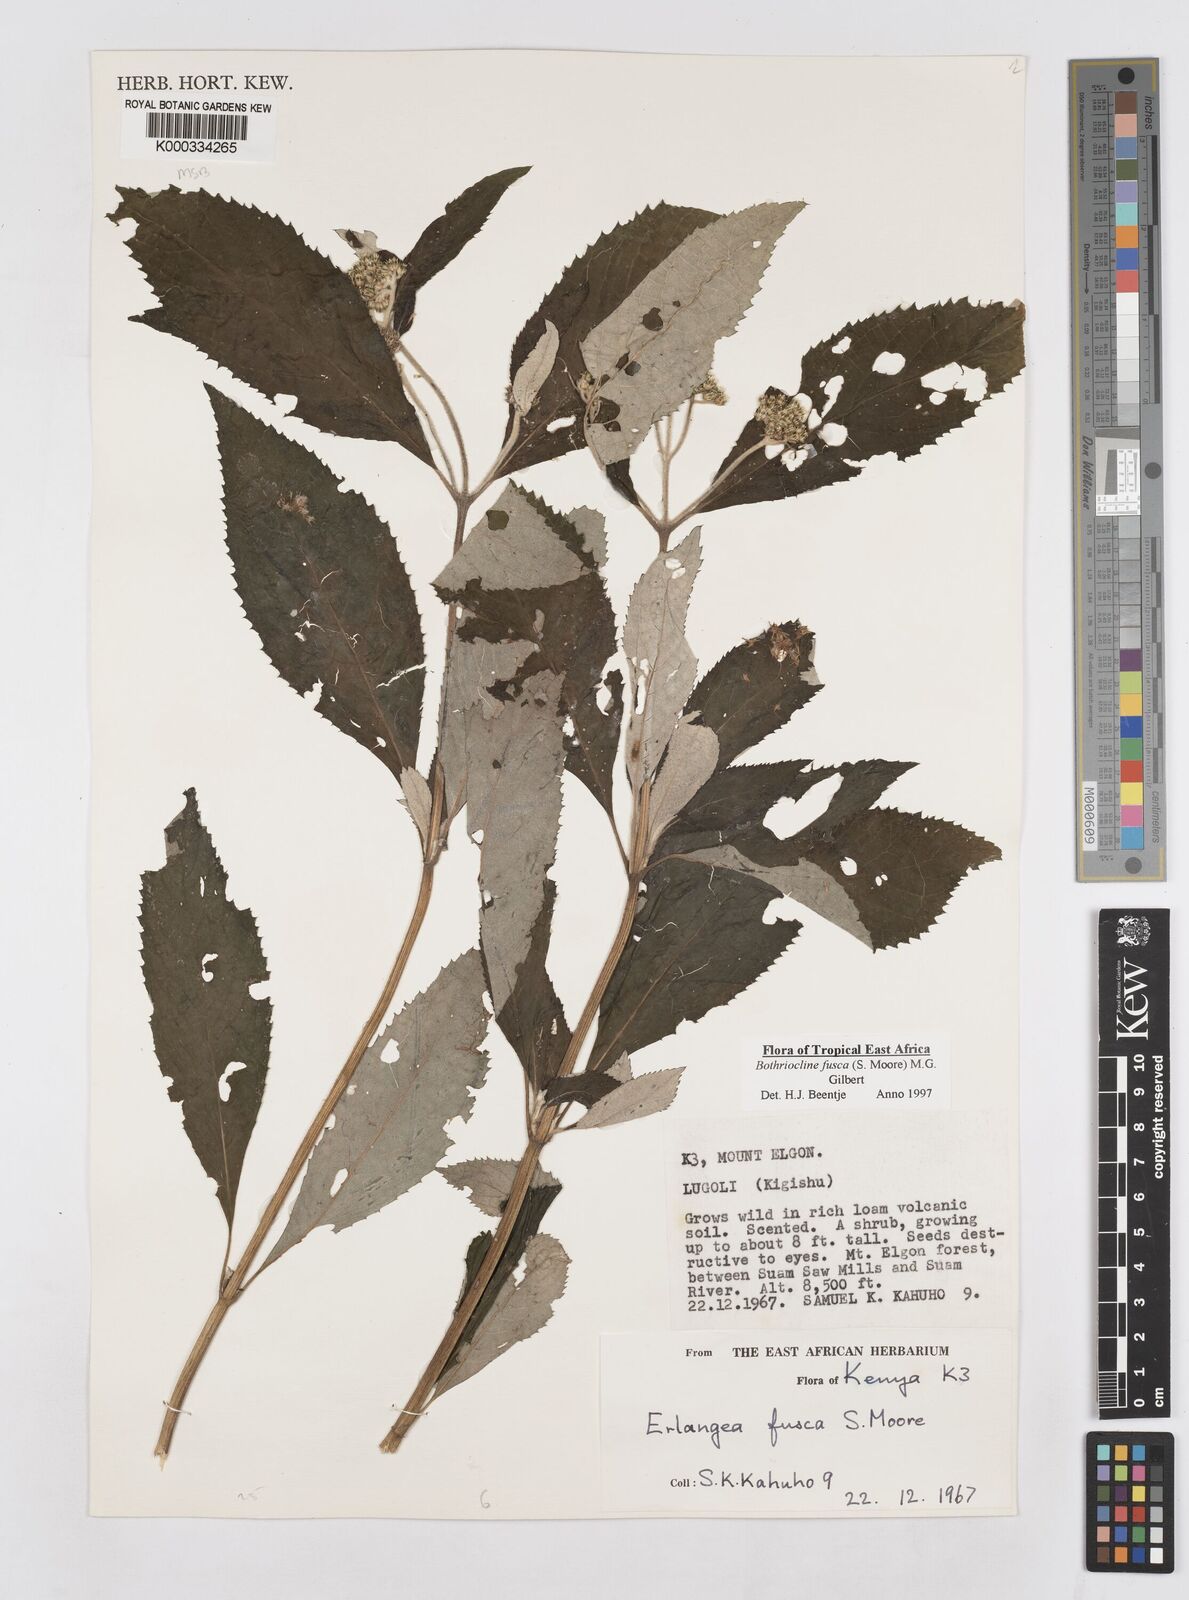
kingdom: Plantae
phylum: Tracheophyta
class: Magnoliopsida
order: Asterales
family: Asteraceae
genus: Bothriocline
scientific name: Bothriocline fusca
